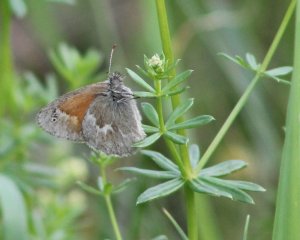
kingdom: Animalia
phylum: Arthropoda
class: Insecta
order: Lepidoptera
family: Nymphalidae
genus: Coenonympha
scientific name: Coenonympha tullia
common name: Large Heath
